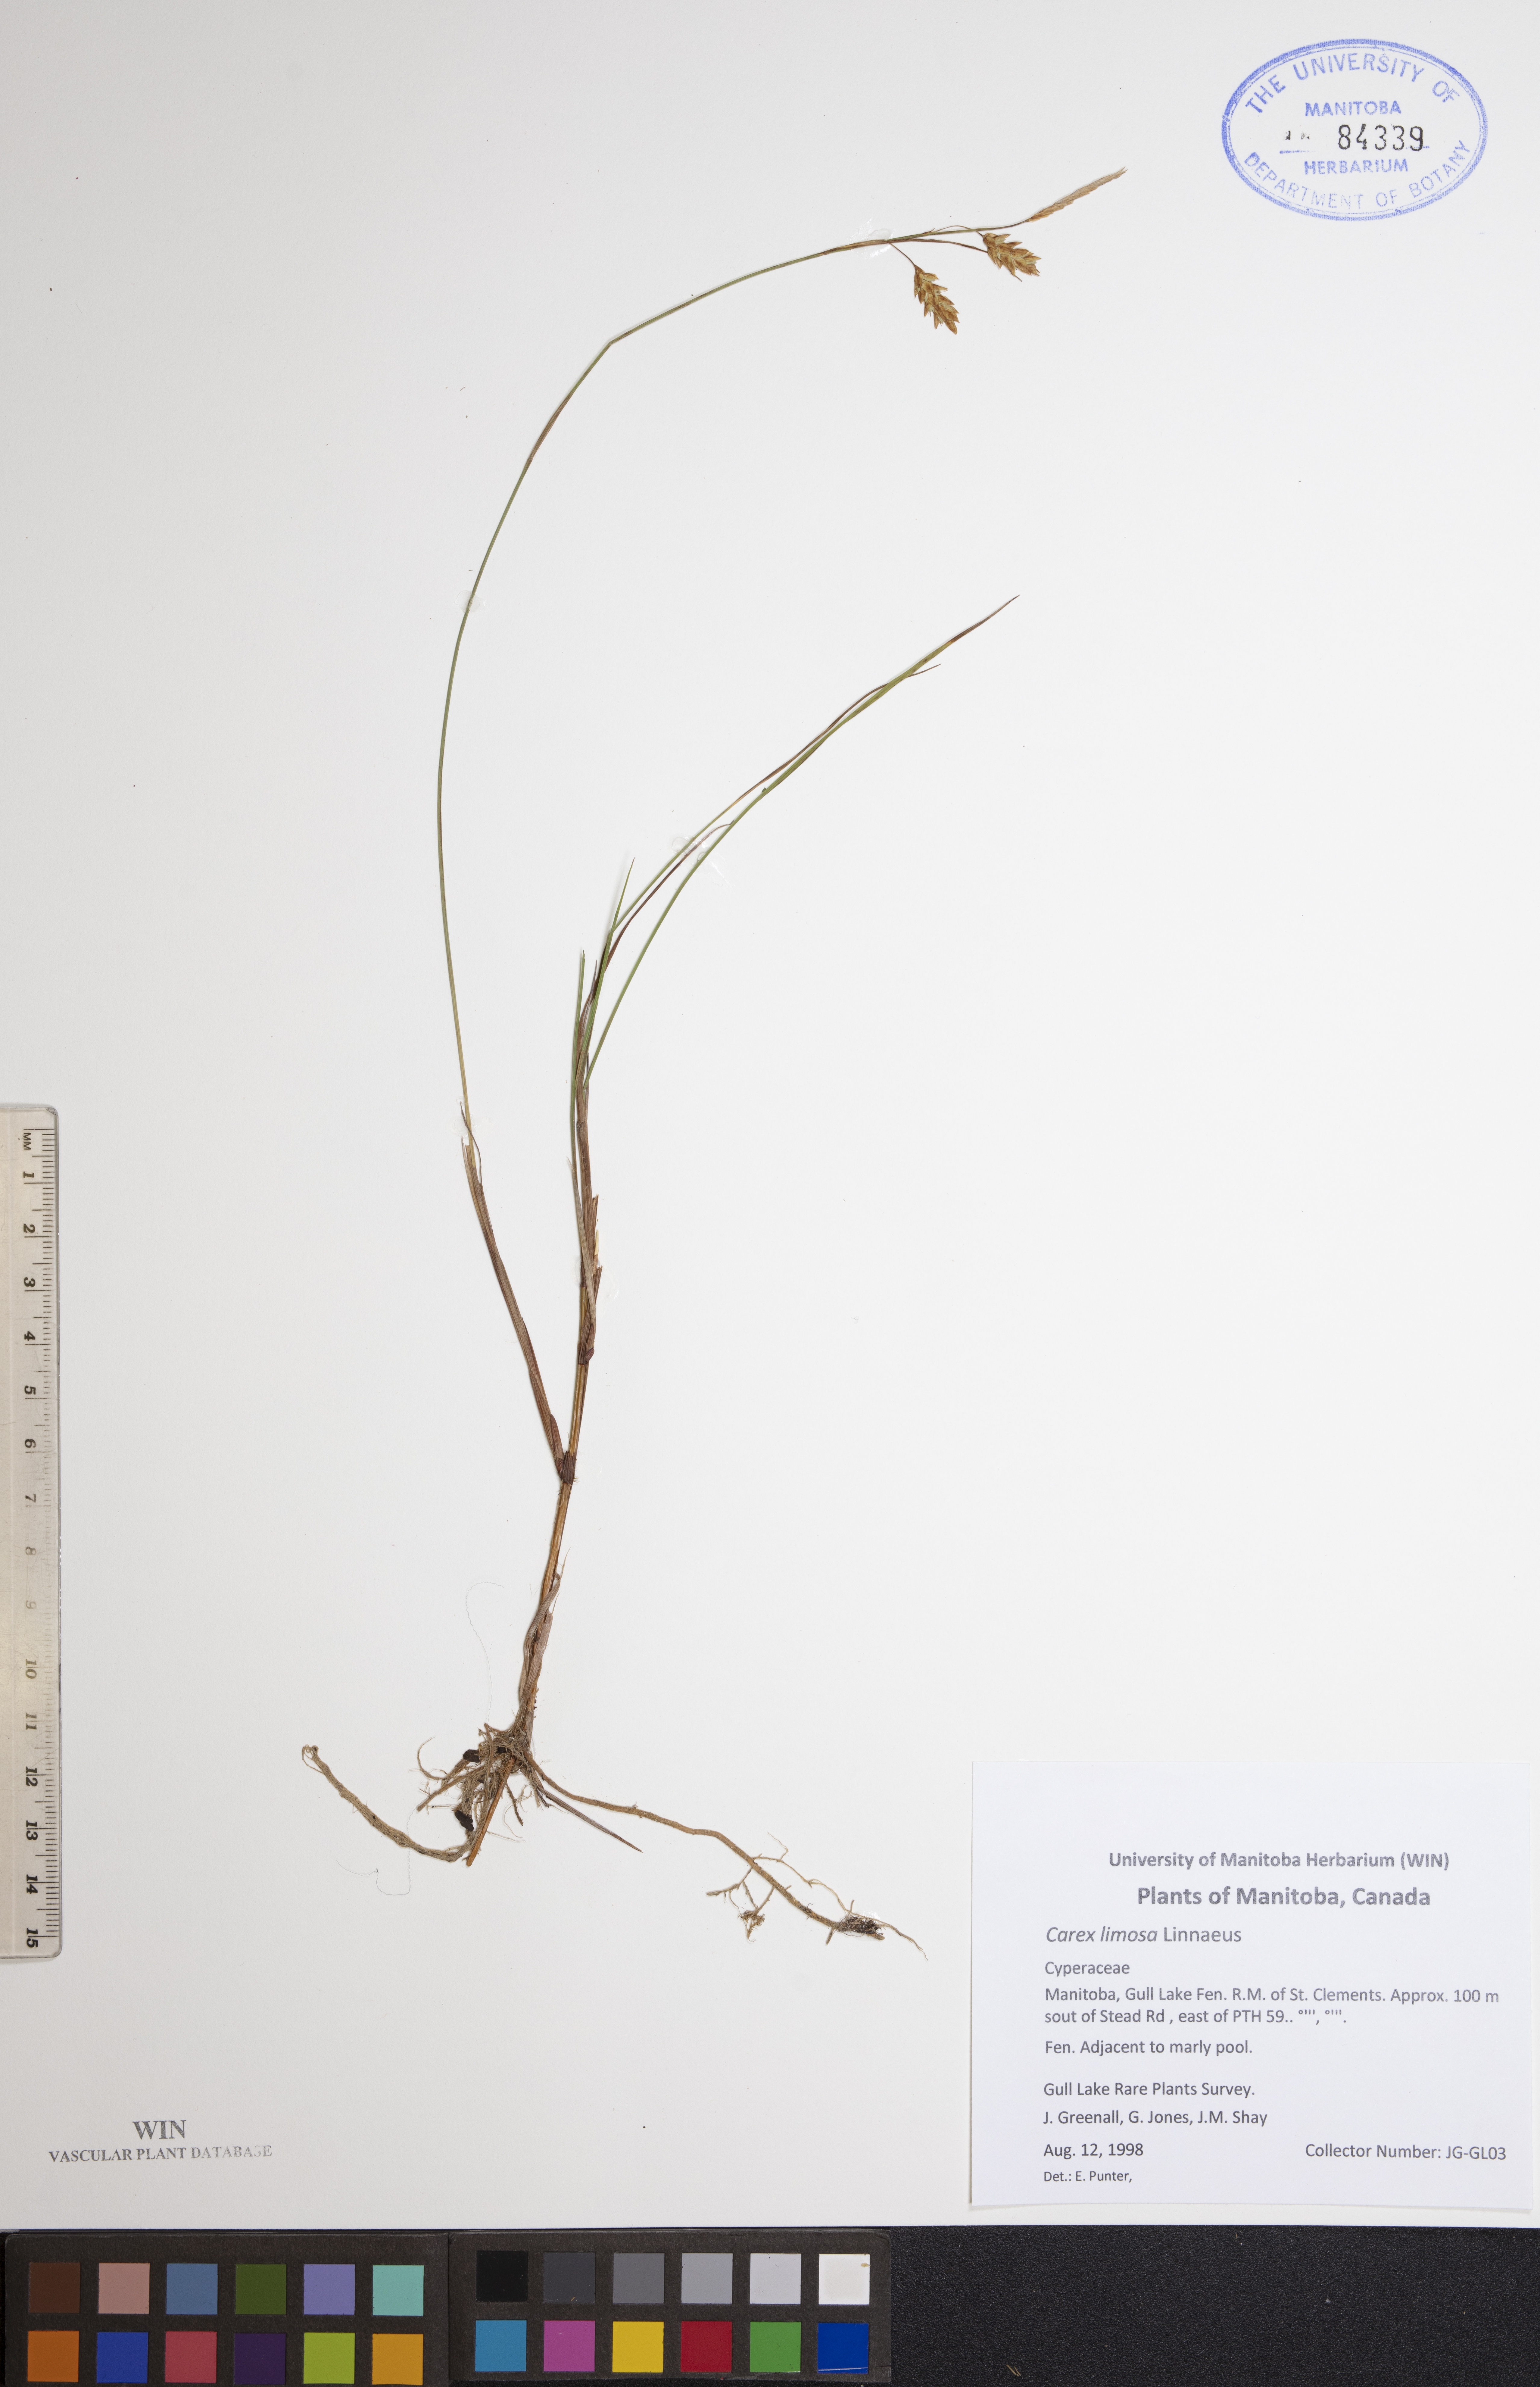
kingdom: Plantae
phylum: Tracheophyta
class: Liliopsida
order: Poales
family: Cyperaceae
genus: Carex
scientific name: Carex limosa
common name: Bog sedge
